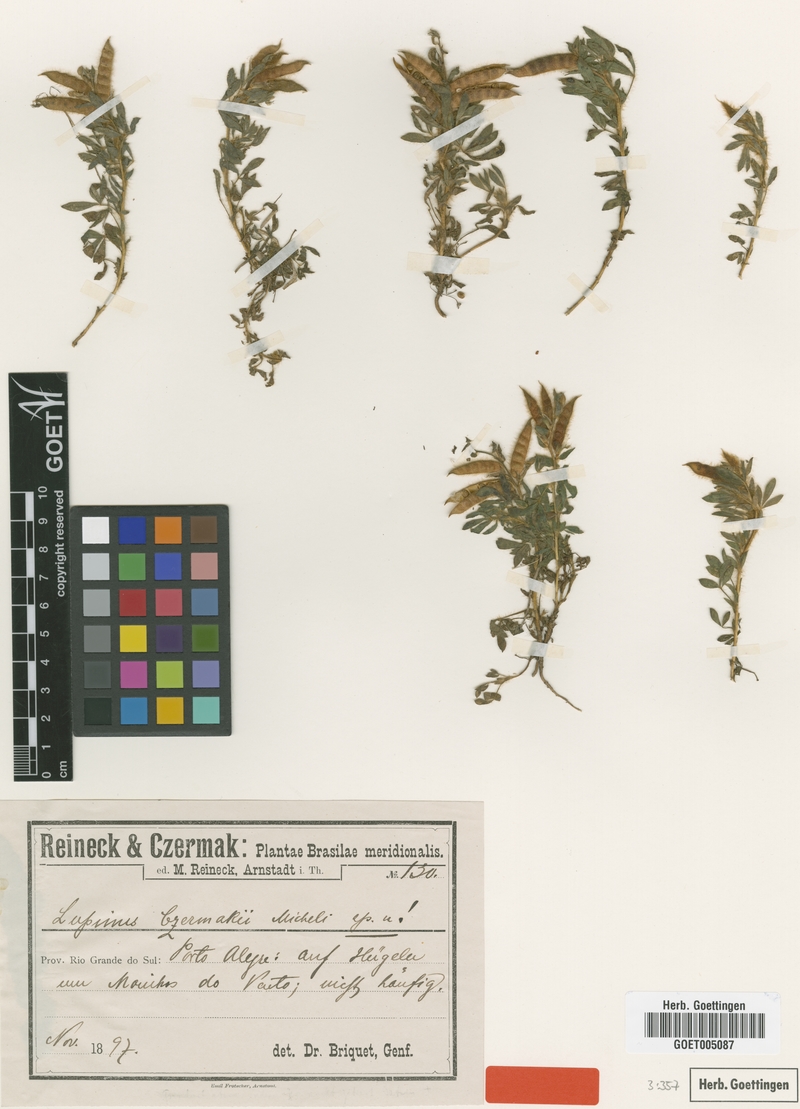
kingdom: Plantae
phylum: Tracheophyta
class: Magnoliopsida
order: Fabales
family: Fabaceae
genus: Lupinus
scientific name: Lupinus czermakii
